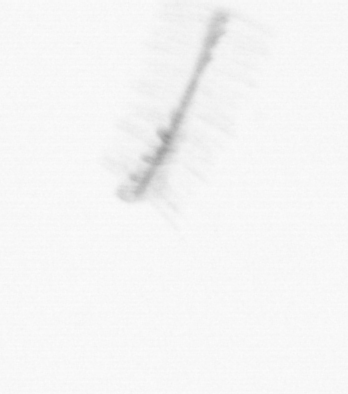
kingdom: Chromista
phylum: Ochrophyta
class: Bacillariophyceae
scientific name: Bacillariophyceae
